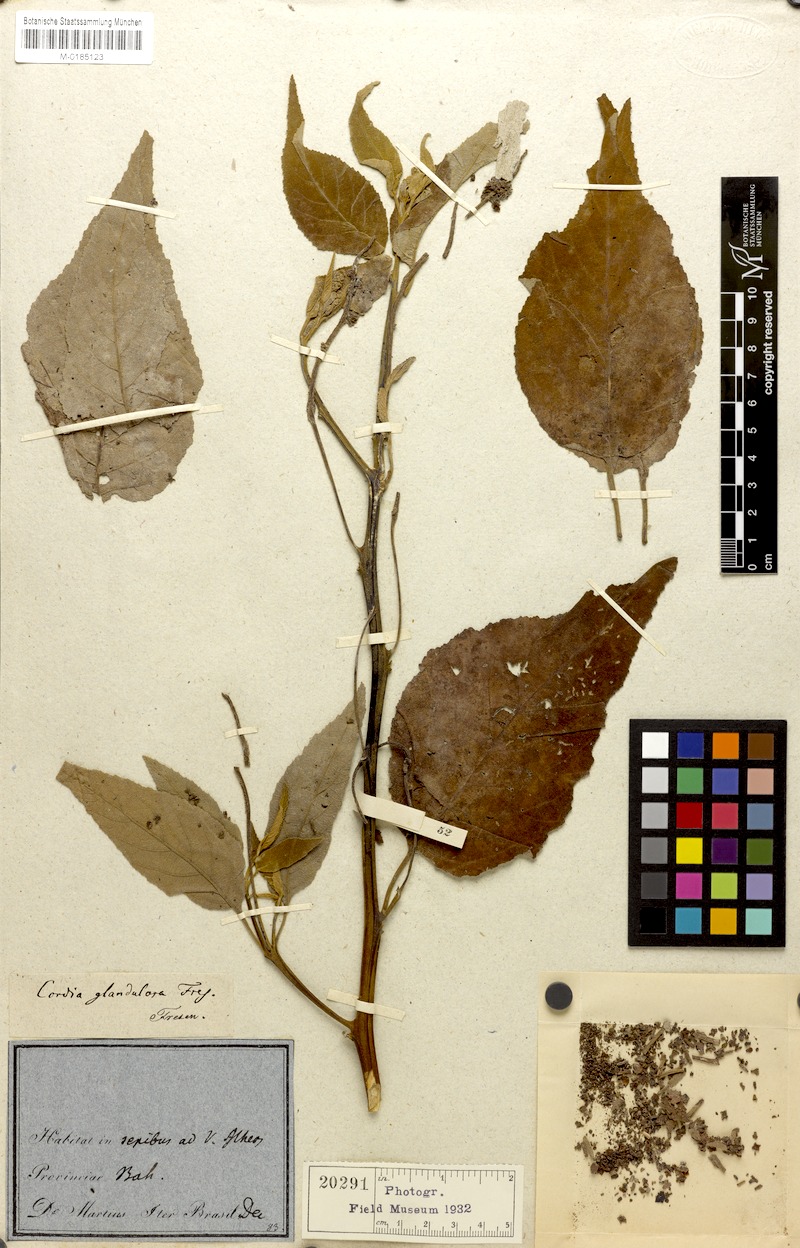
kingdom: Plantae
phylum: Tracheophyta
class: Magnoliopsida
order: Boraginales
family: Cordiaceae
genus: Varronia
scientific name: Varronia glandulosa
